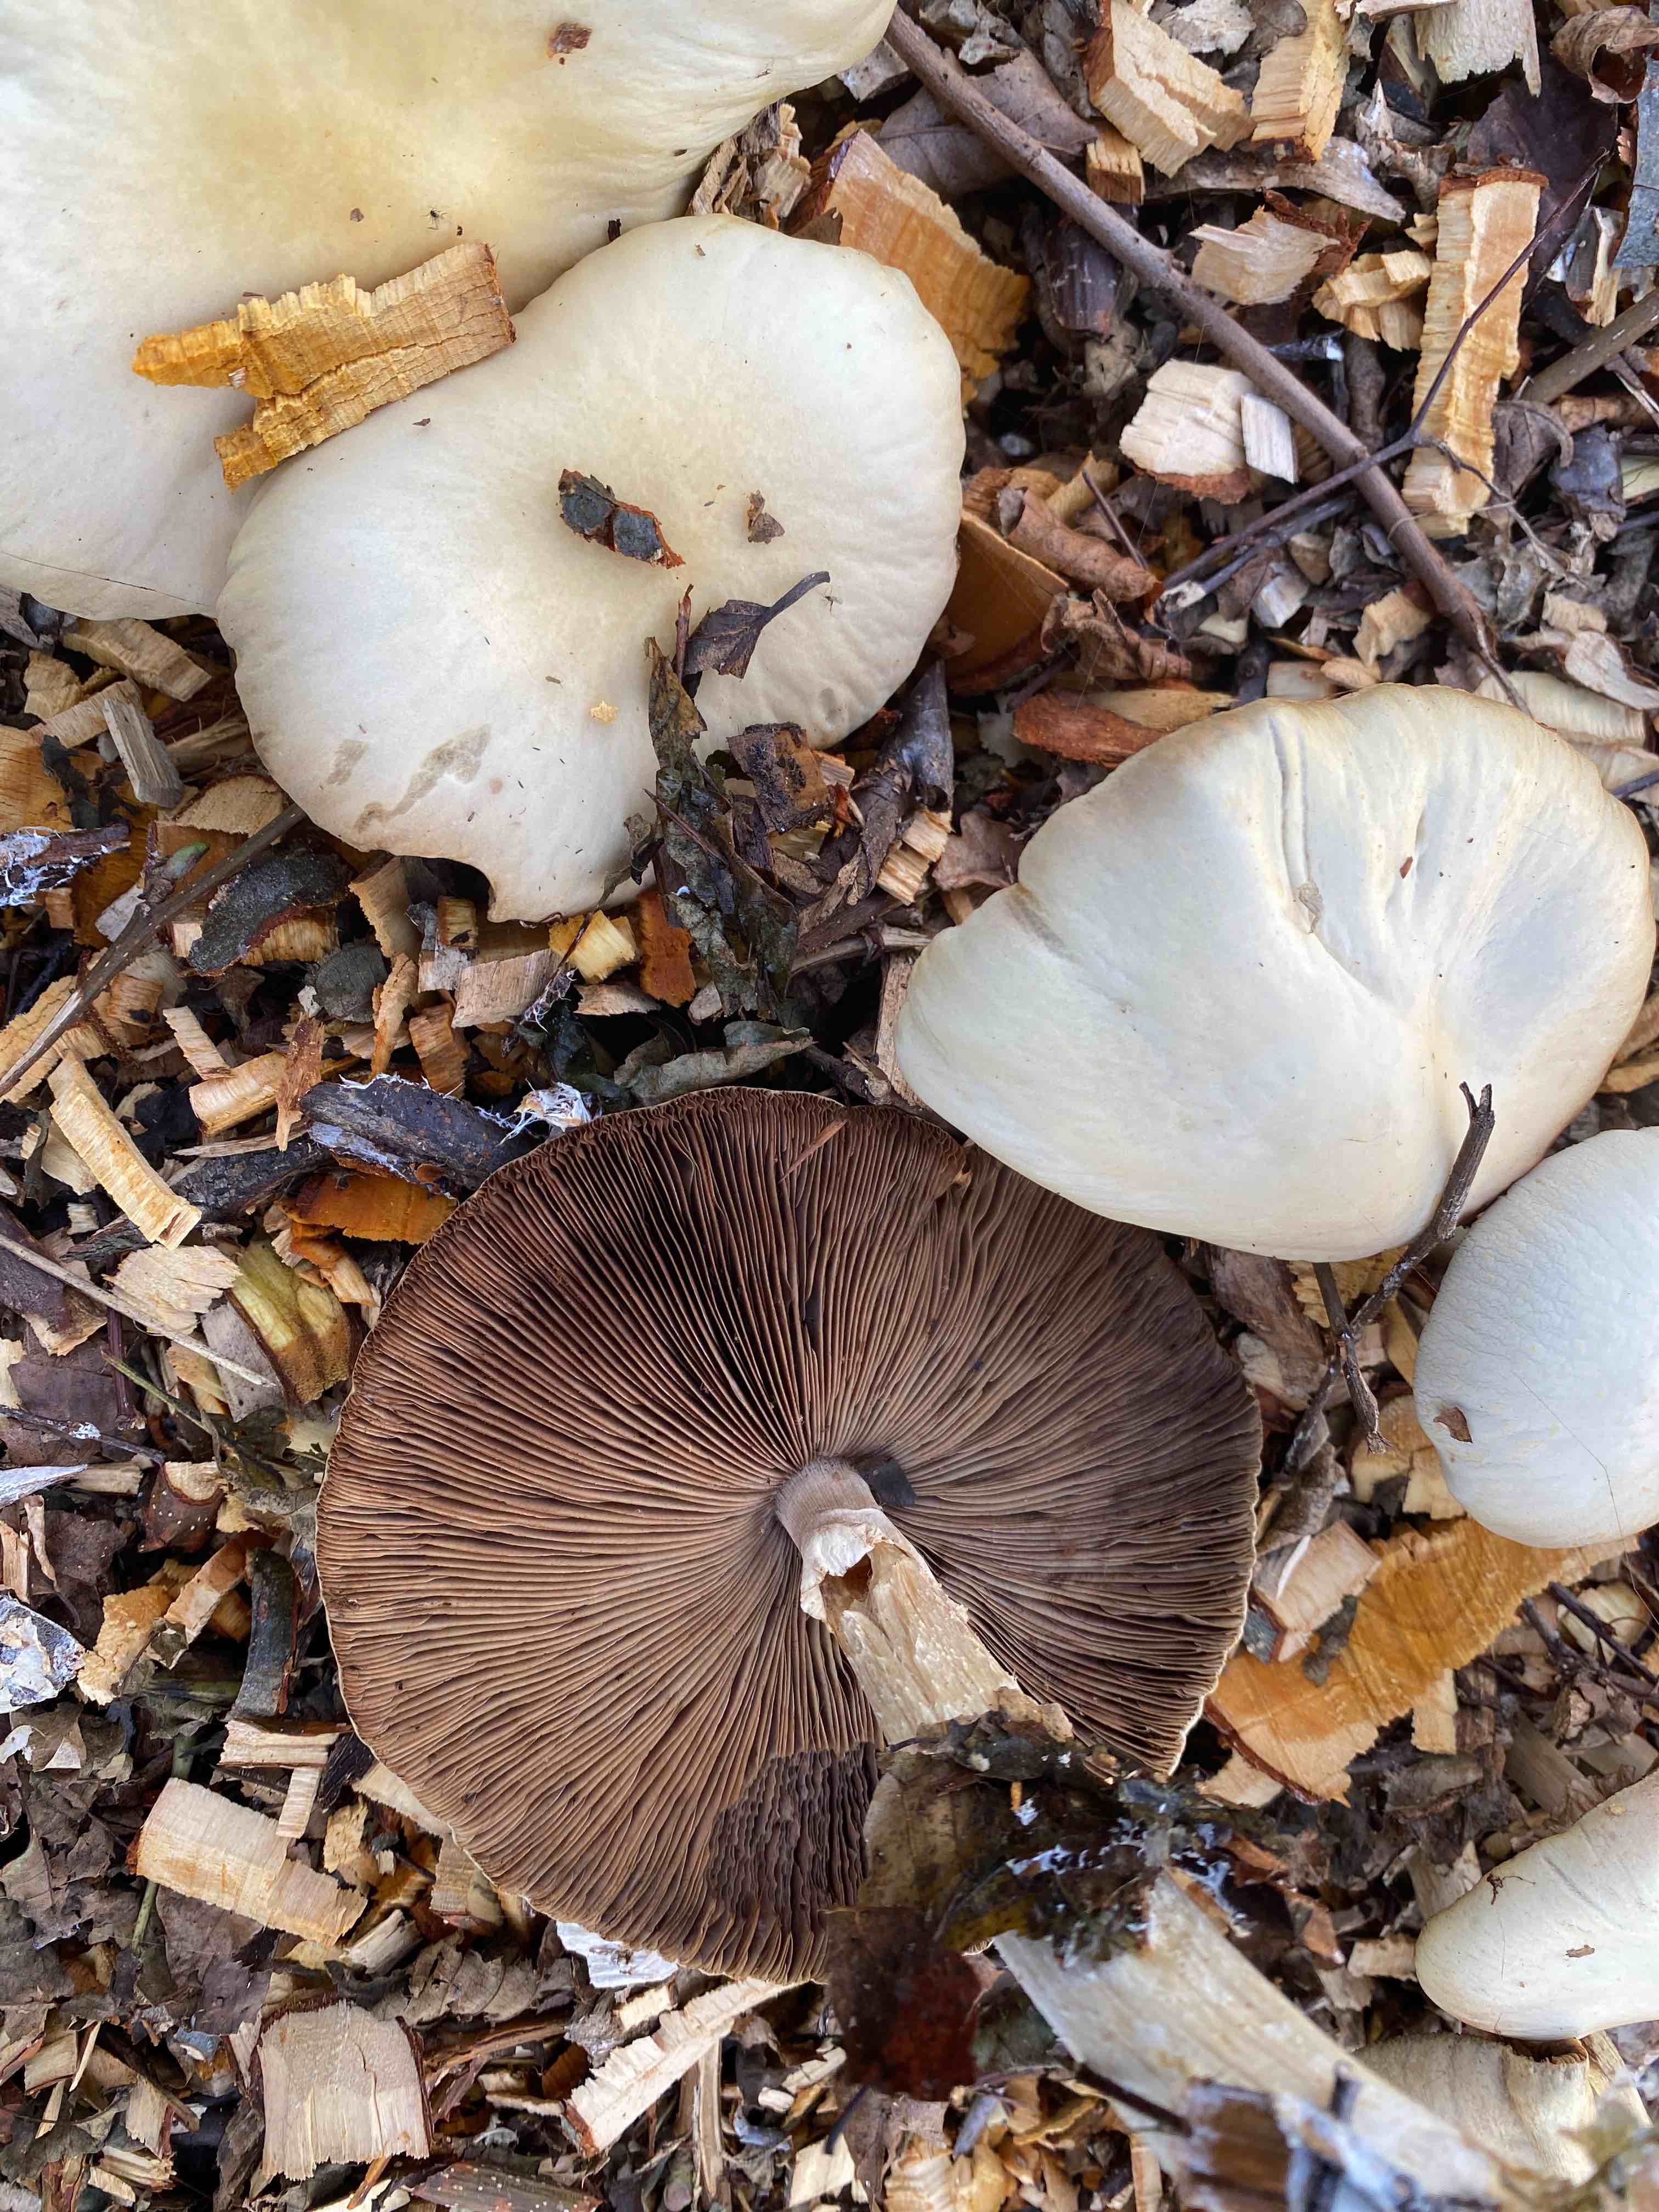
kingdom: Fungi
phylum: Basidiomycota
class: Agaricomycetes
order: Agaricales
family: Strophariaceae
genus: Agrocybe
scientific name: Agrocybe rivulosa
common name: året agerhat
